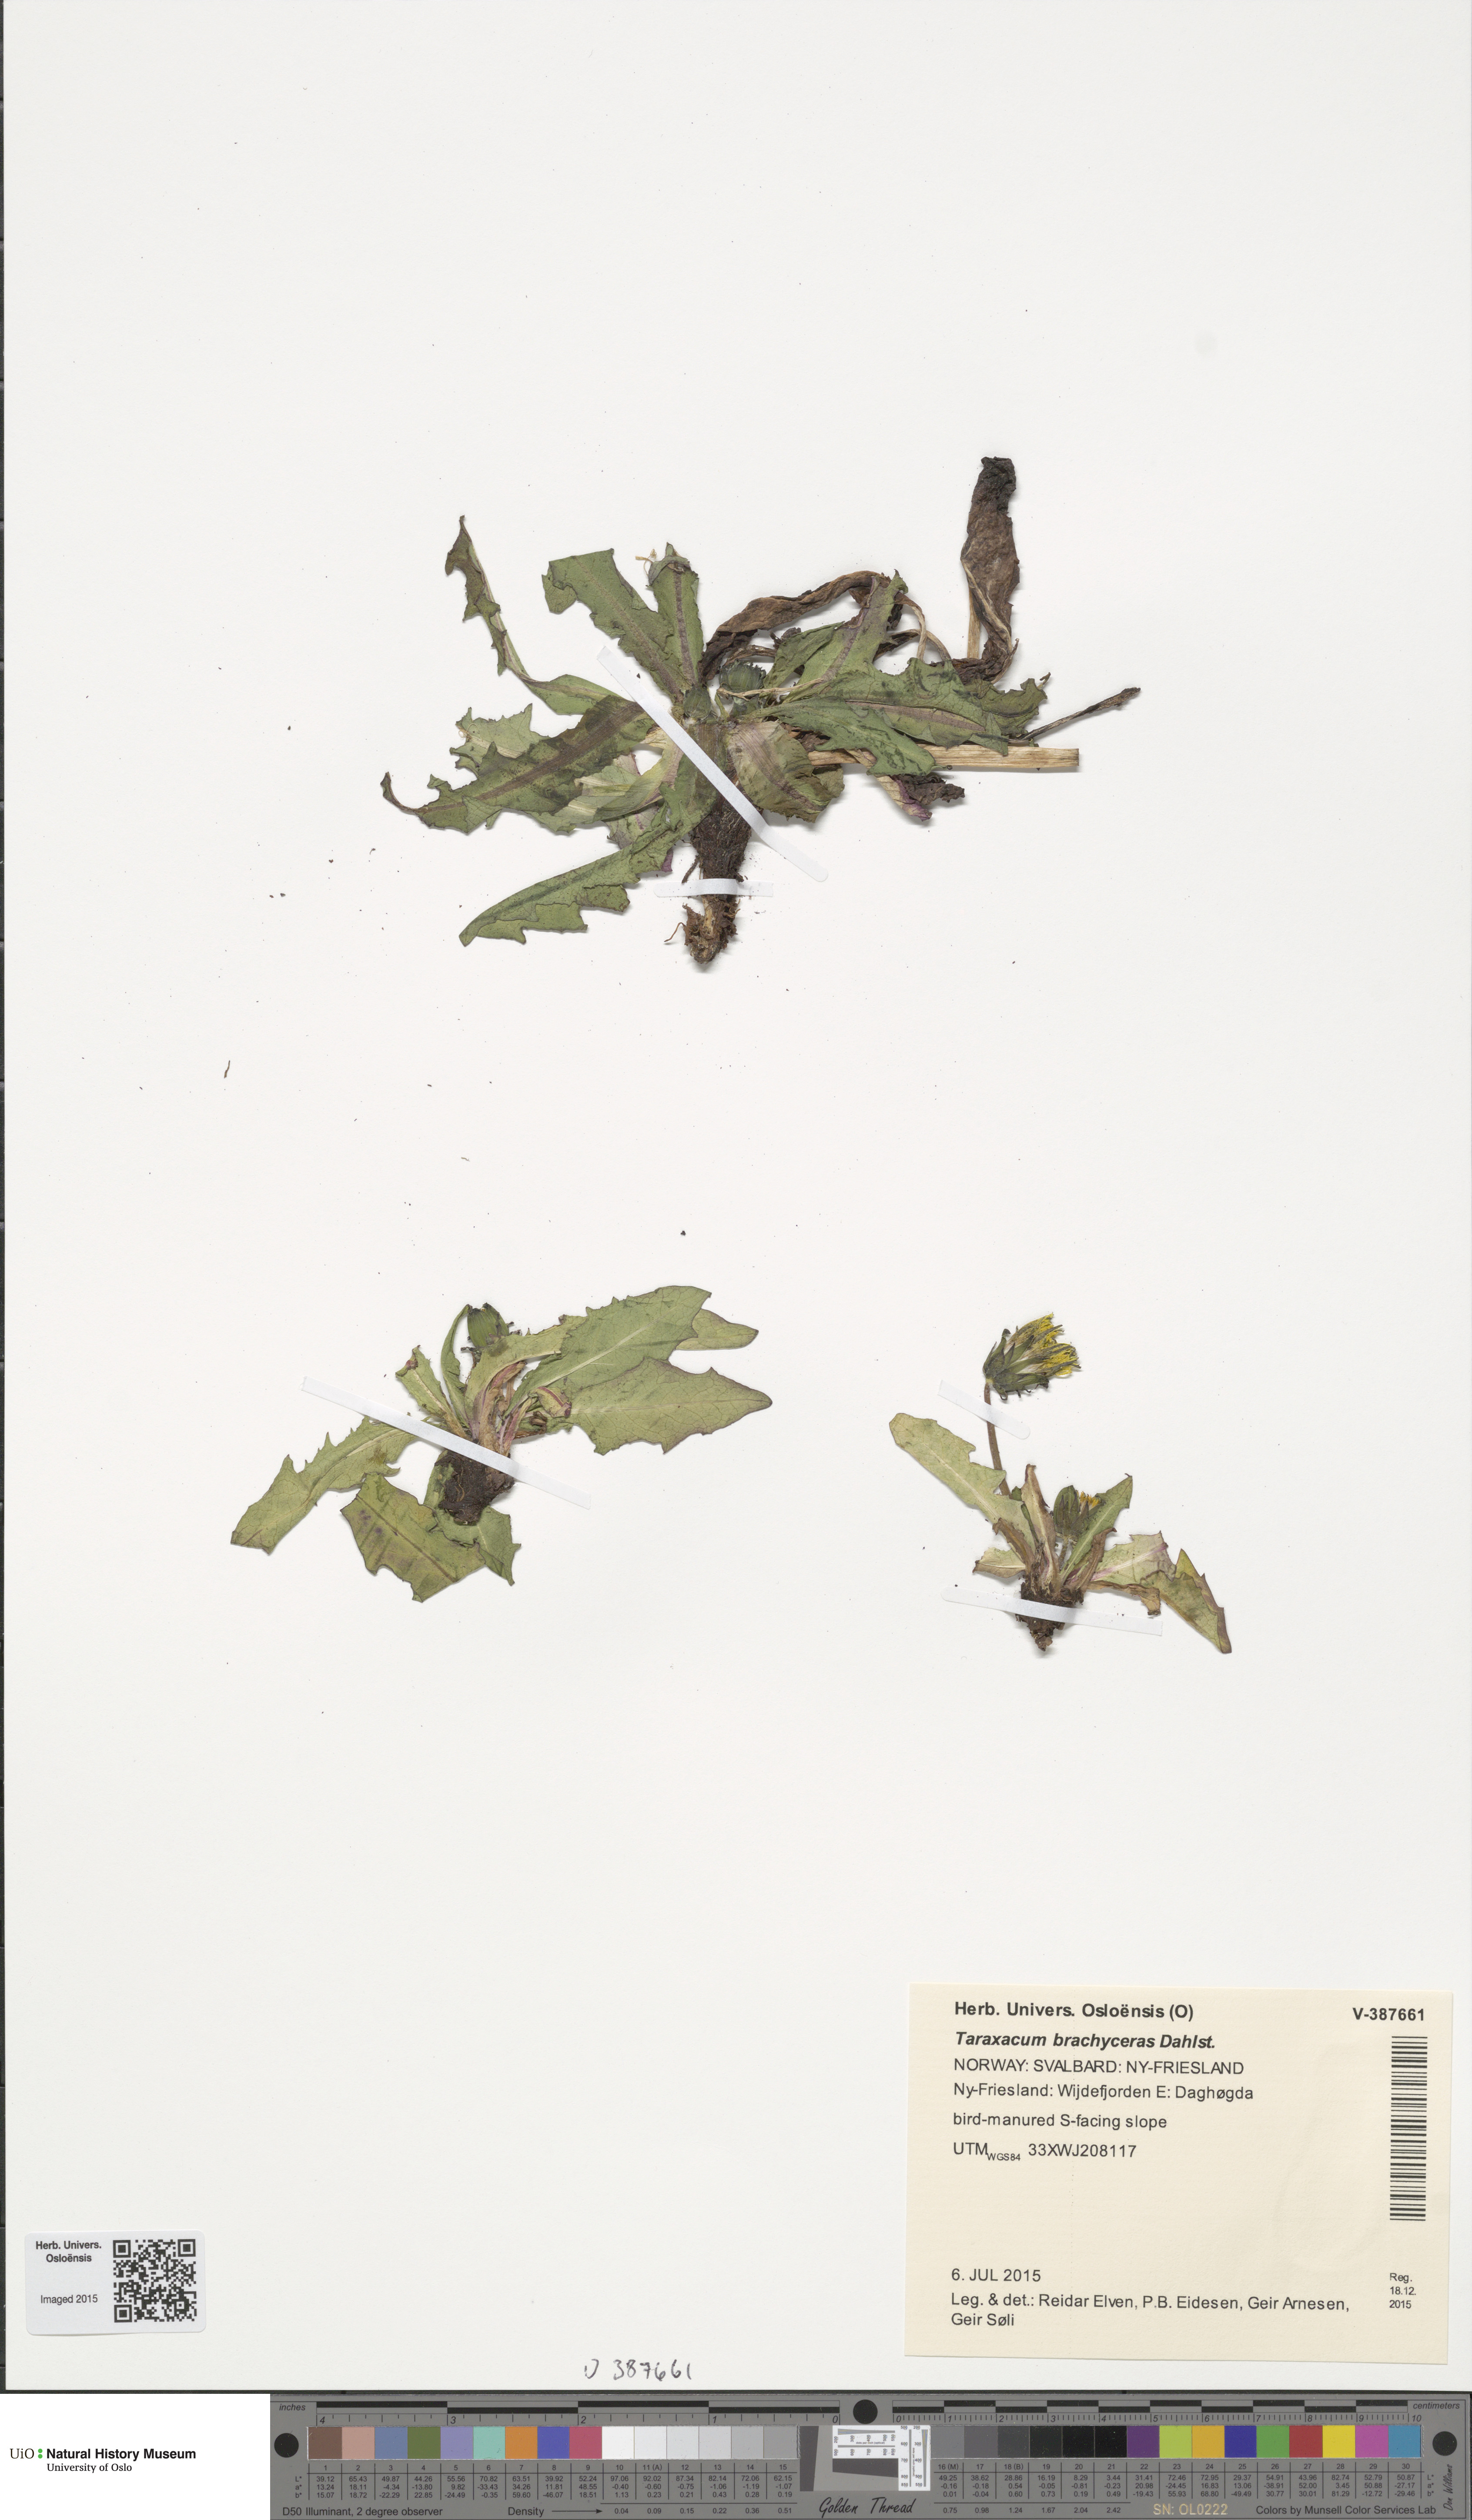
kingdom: Plantae
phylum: Tracheophyta
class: Magnoliopsida
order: Asterales
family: Asteraceae
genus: Taraxacum
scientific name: Taraxacum brachyceras
